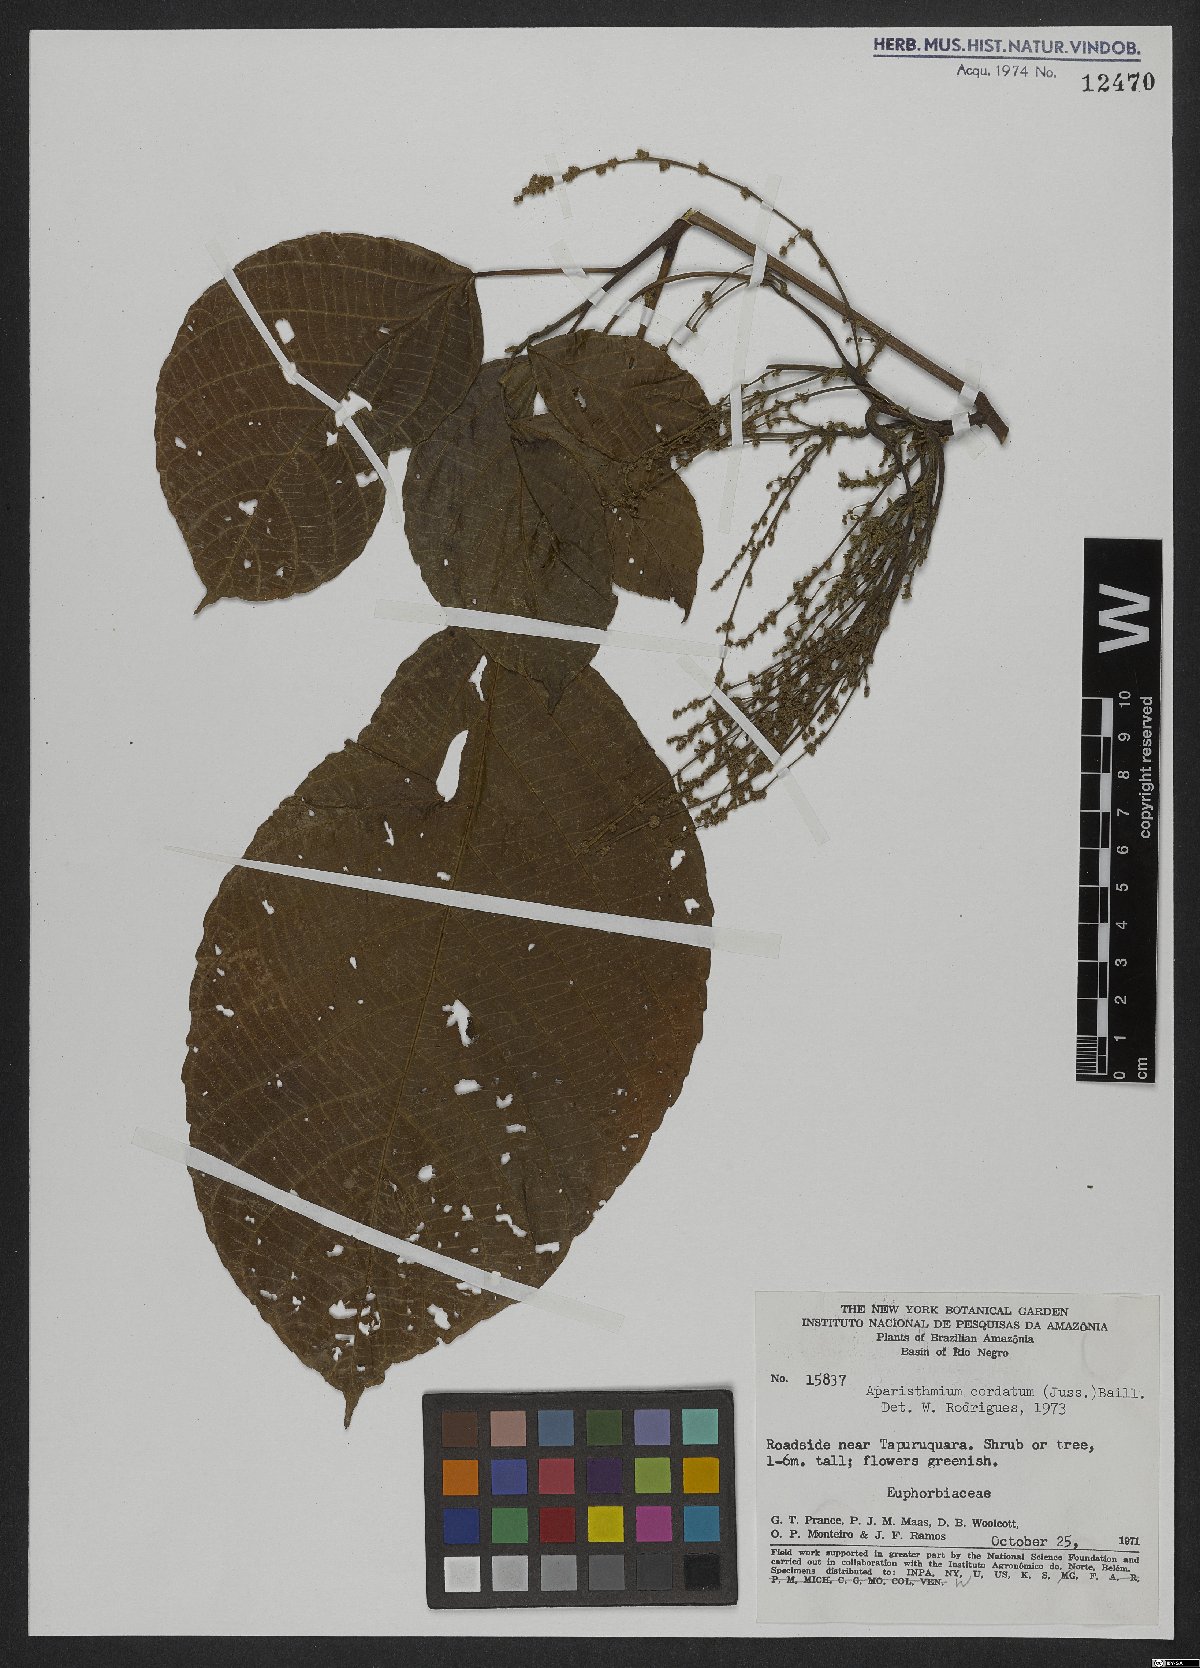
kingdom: Plantae
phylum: Tracheophyta
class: Magnoliopsida
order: Malpighiales
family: Euphorbiaceae
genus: Aparisthmium
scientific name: Aparisthmium cordatum
